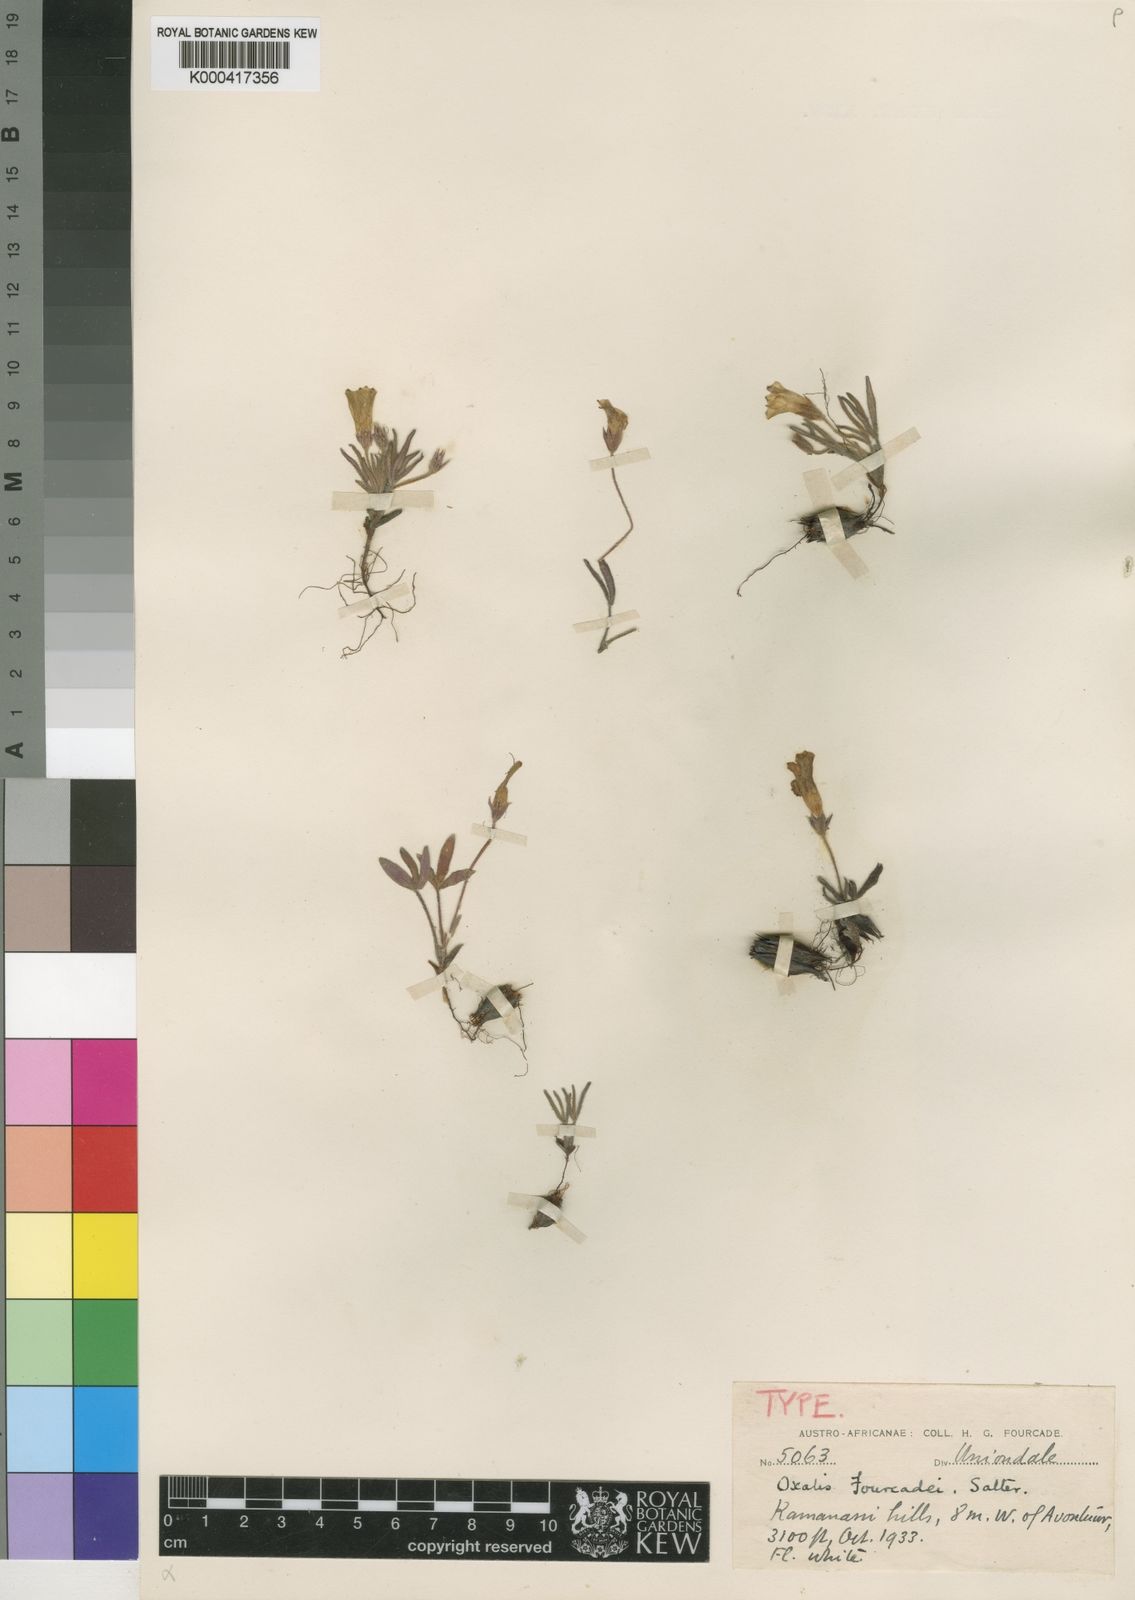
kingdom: Plantae
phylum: Tracheophyta
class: Magnoliopsida
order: Oxalidales
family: Oxalidaceae
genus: Oxalis
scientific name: Oxalis fourcadei
